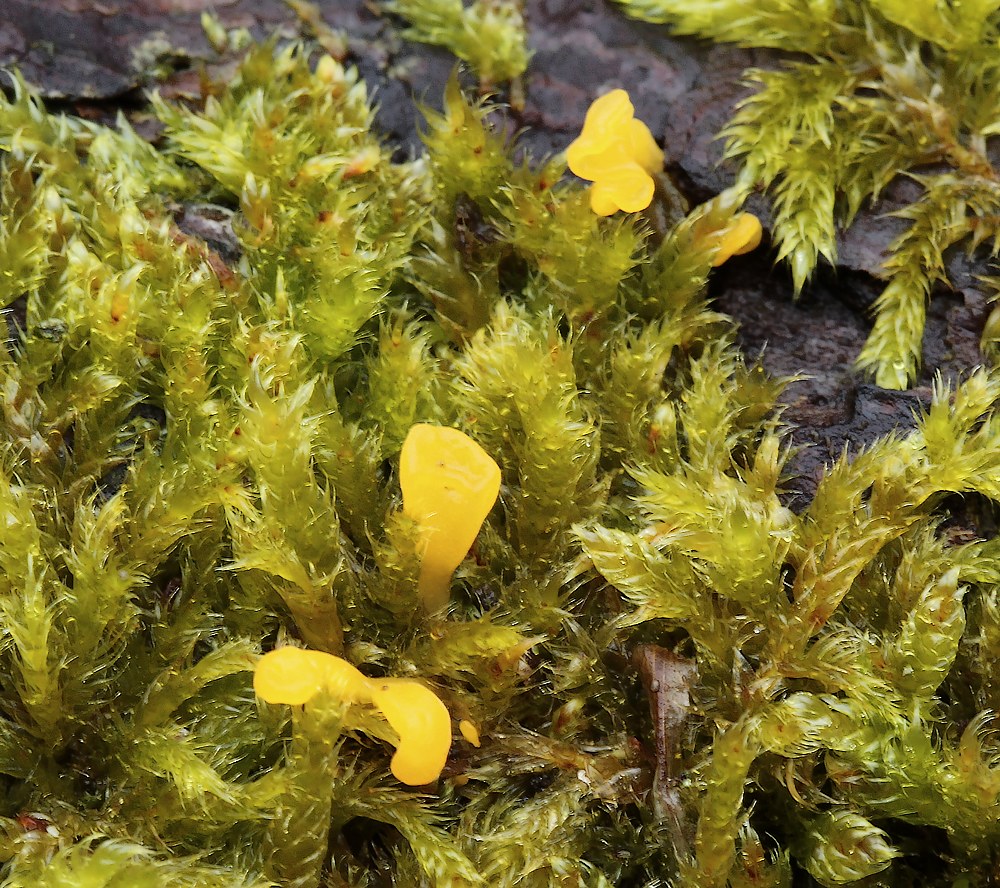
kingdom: Fungi
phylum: Basidiomycota
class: Dacrymycetes
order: Dacrymycetales
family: Dacrymycetaceae
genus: Calocera
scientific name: Calocera furcata
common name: fyrre-guldgaffel
